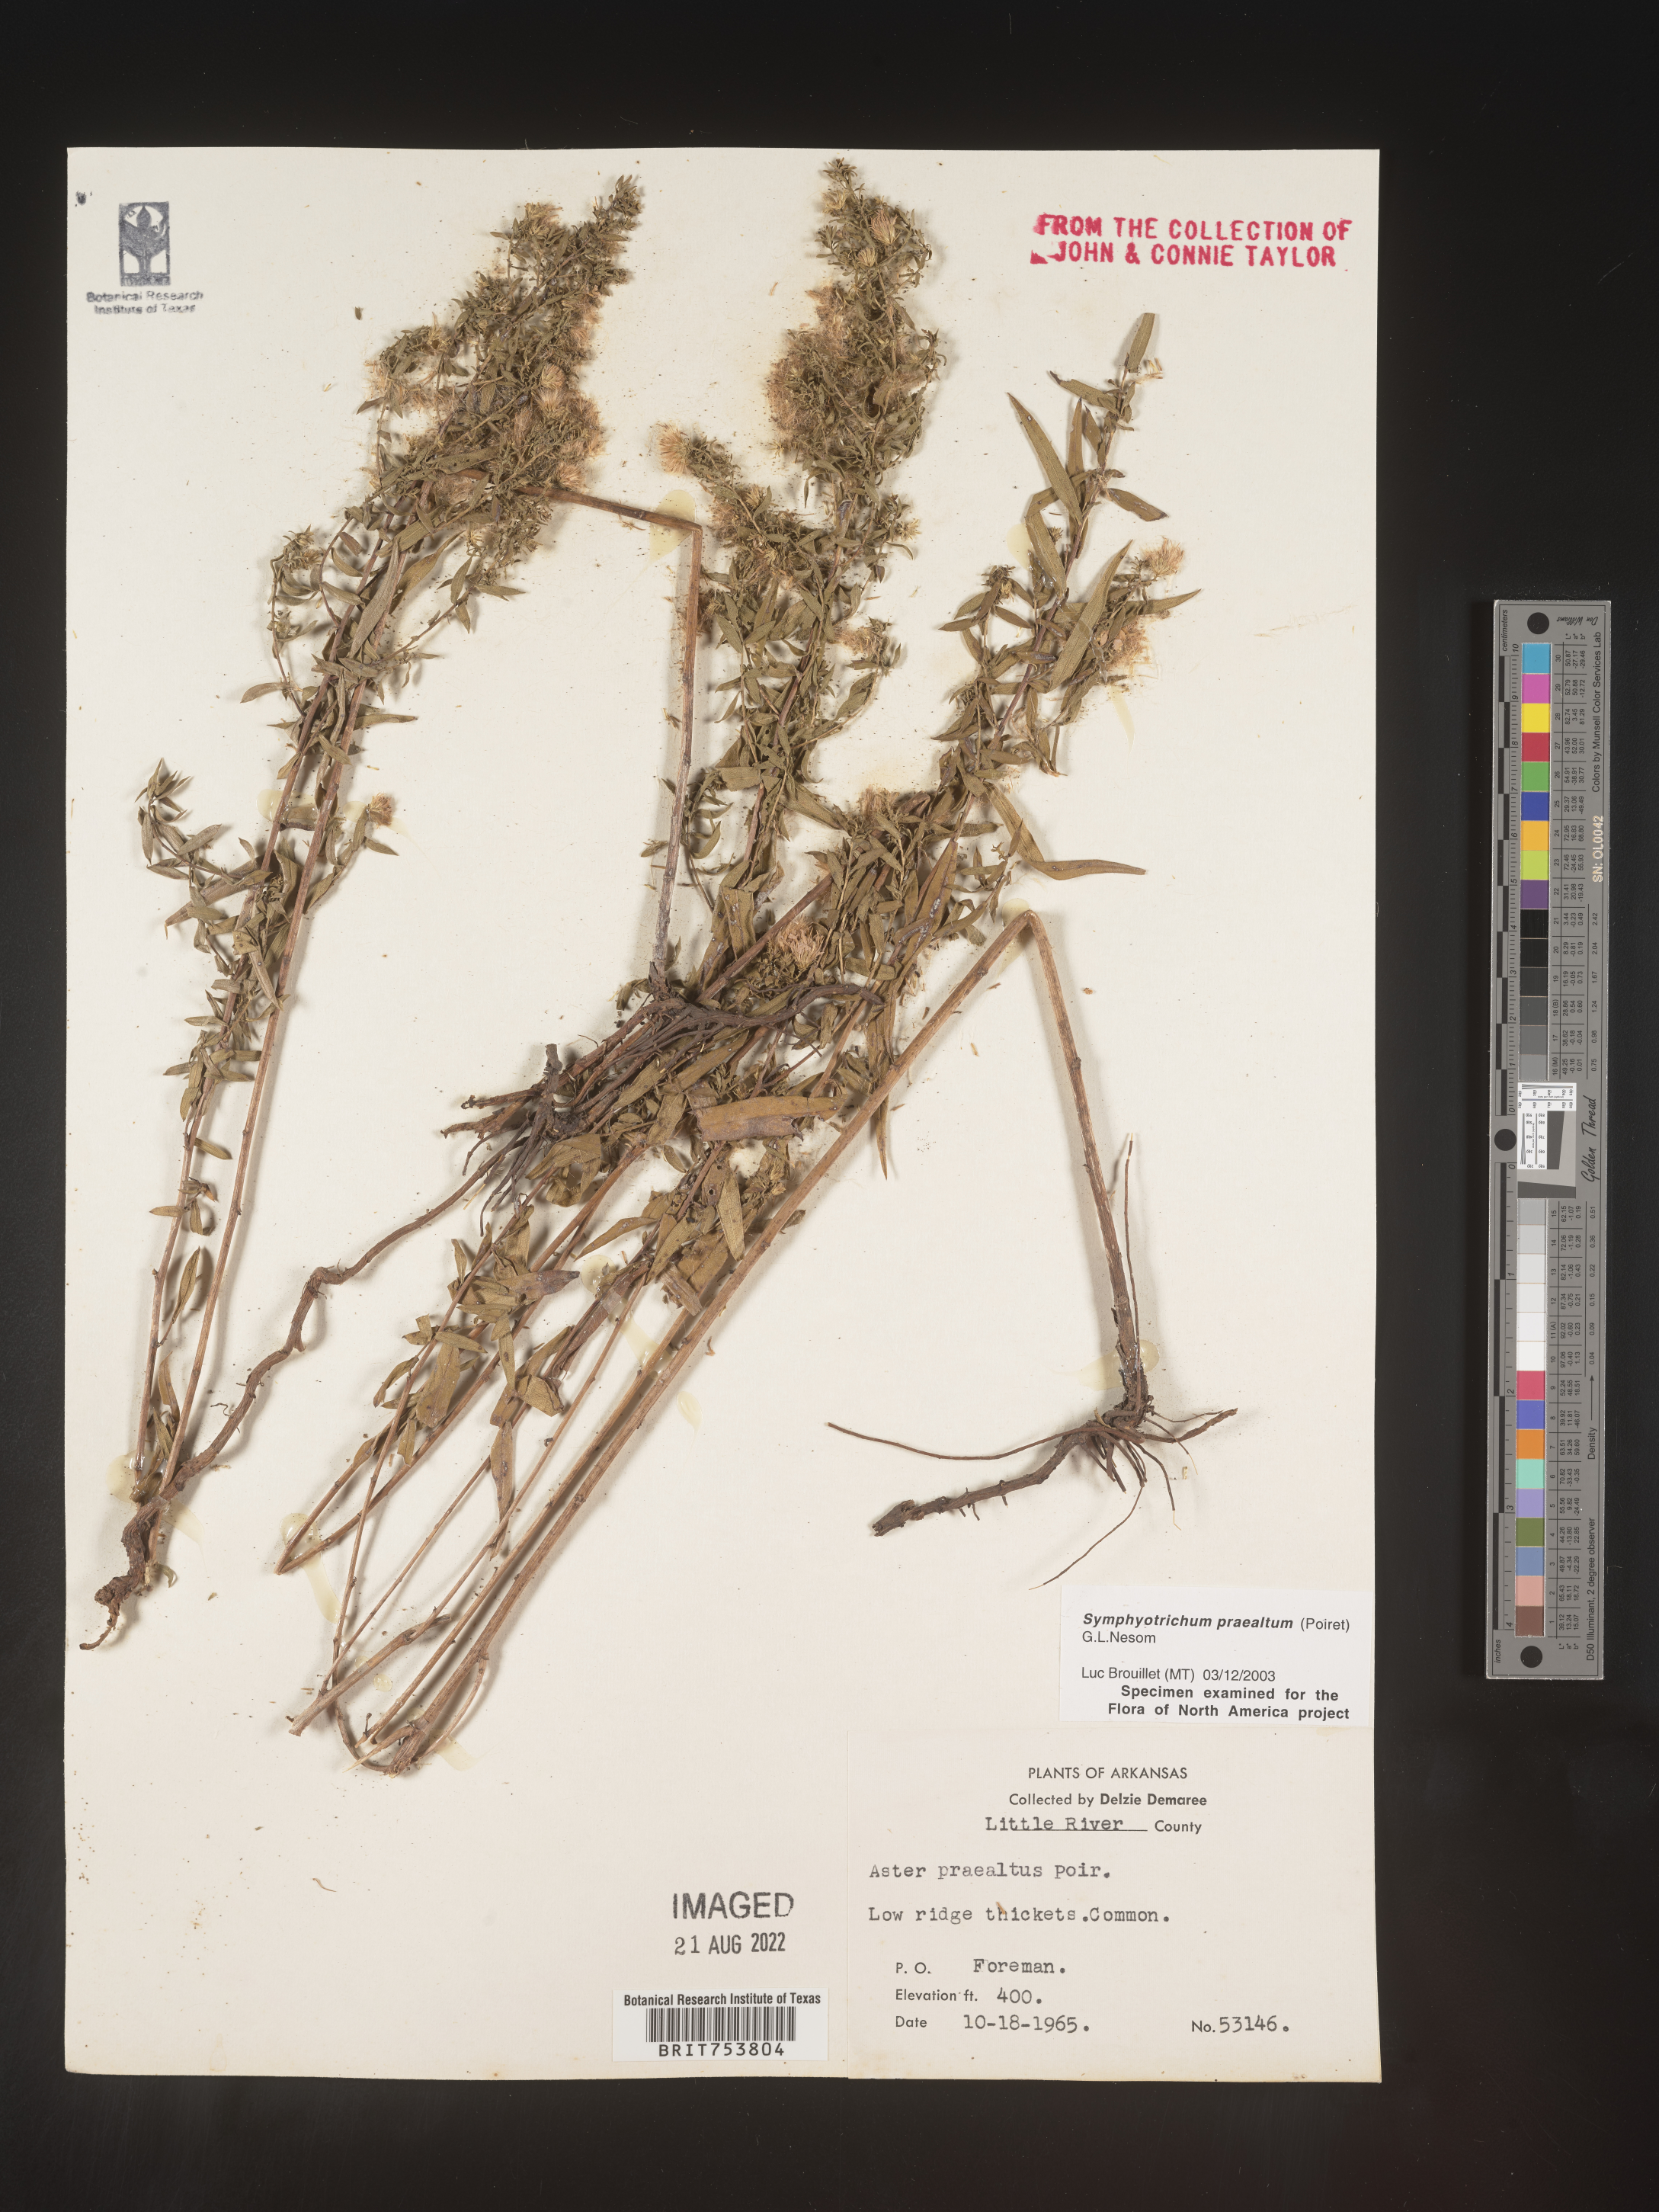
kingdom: Plantae
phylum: Tracheophyta
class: Magnoliopsida
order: Asterales
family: Asteraceae
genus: Symphyotrichum
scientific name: Symphyotrichum praealtum
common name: Willow aster
